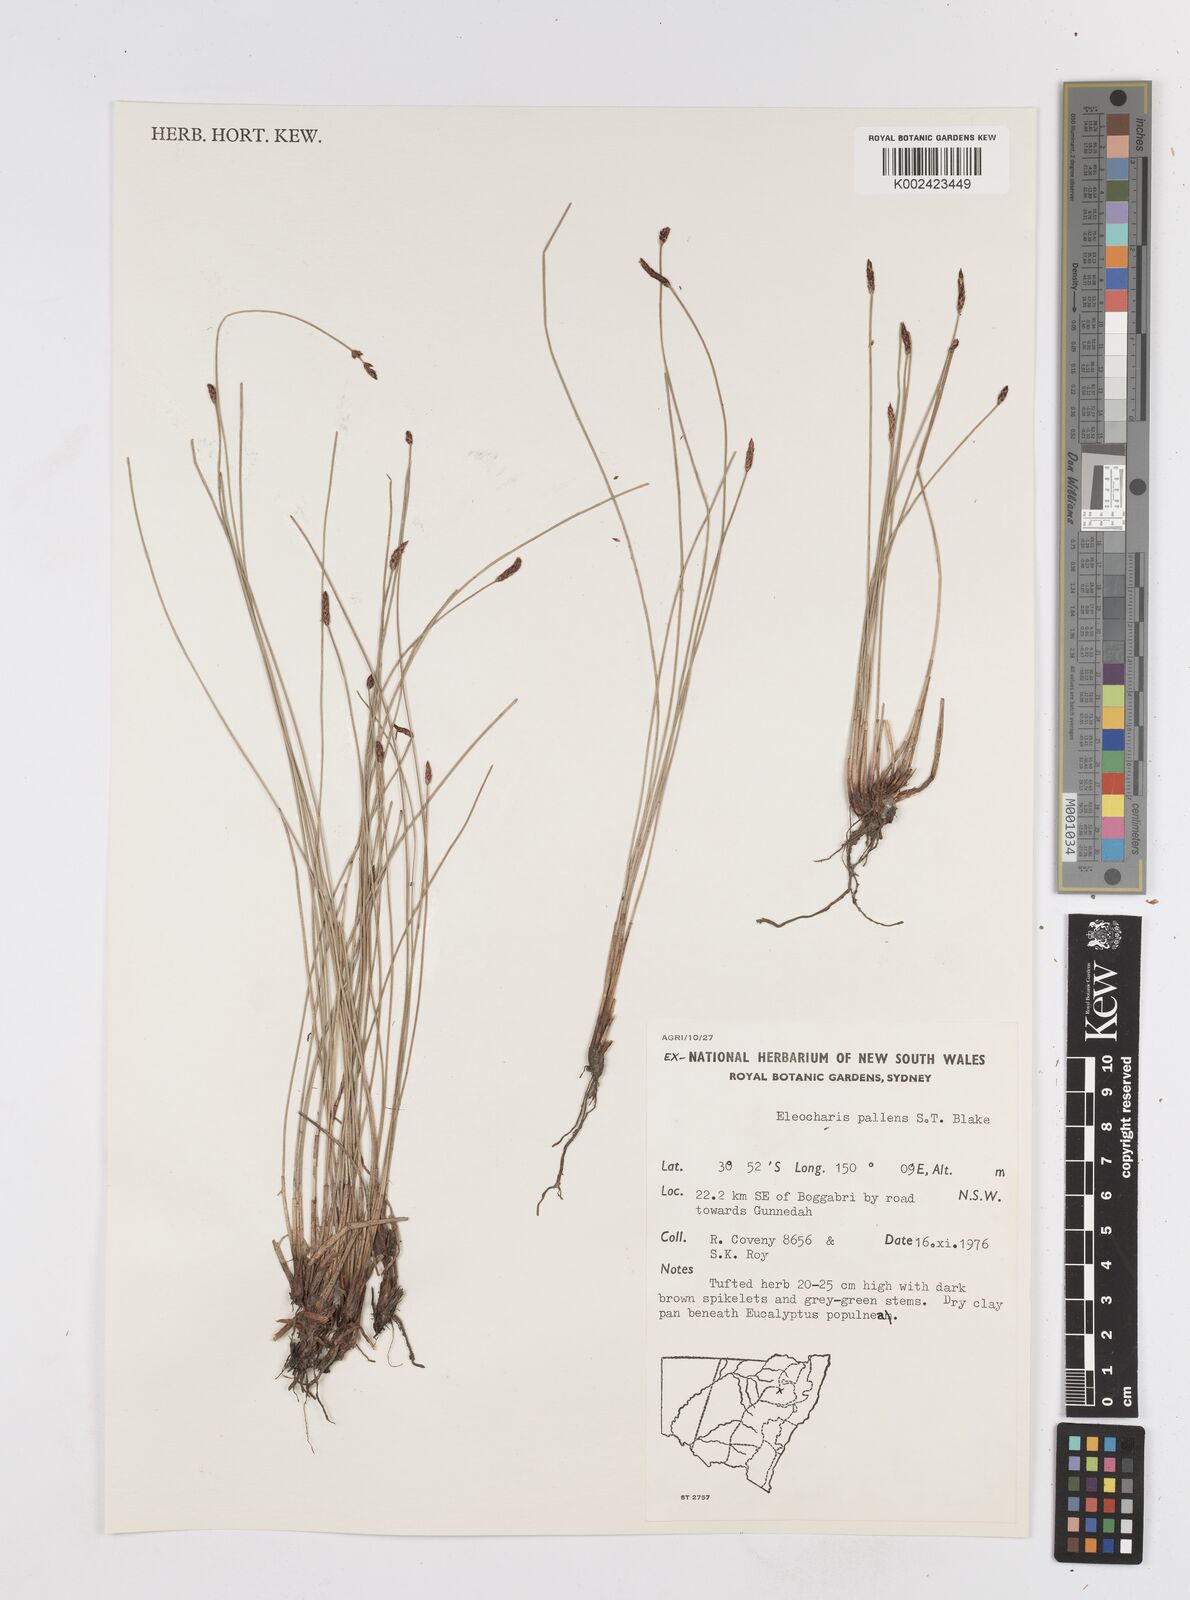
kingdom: Plantae
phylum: Tracheophyta
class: Liliopsida
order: Poales
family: Cyperaceae
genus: Eleocharis
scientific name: Eleocharis acuta
